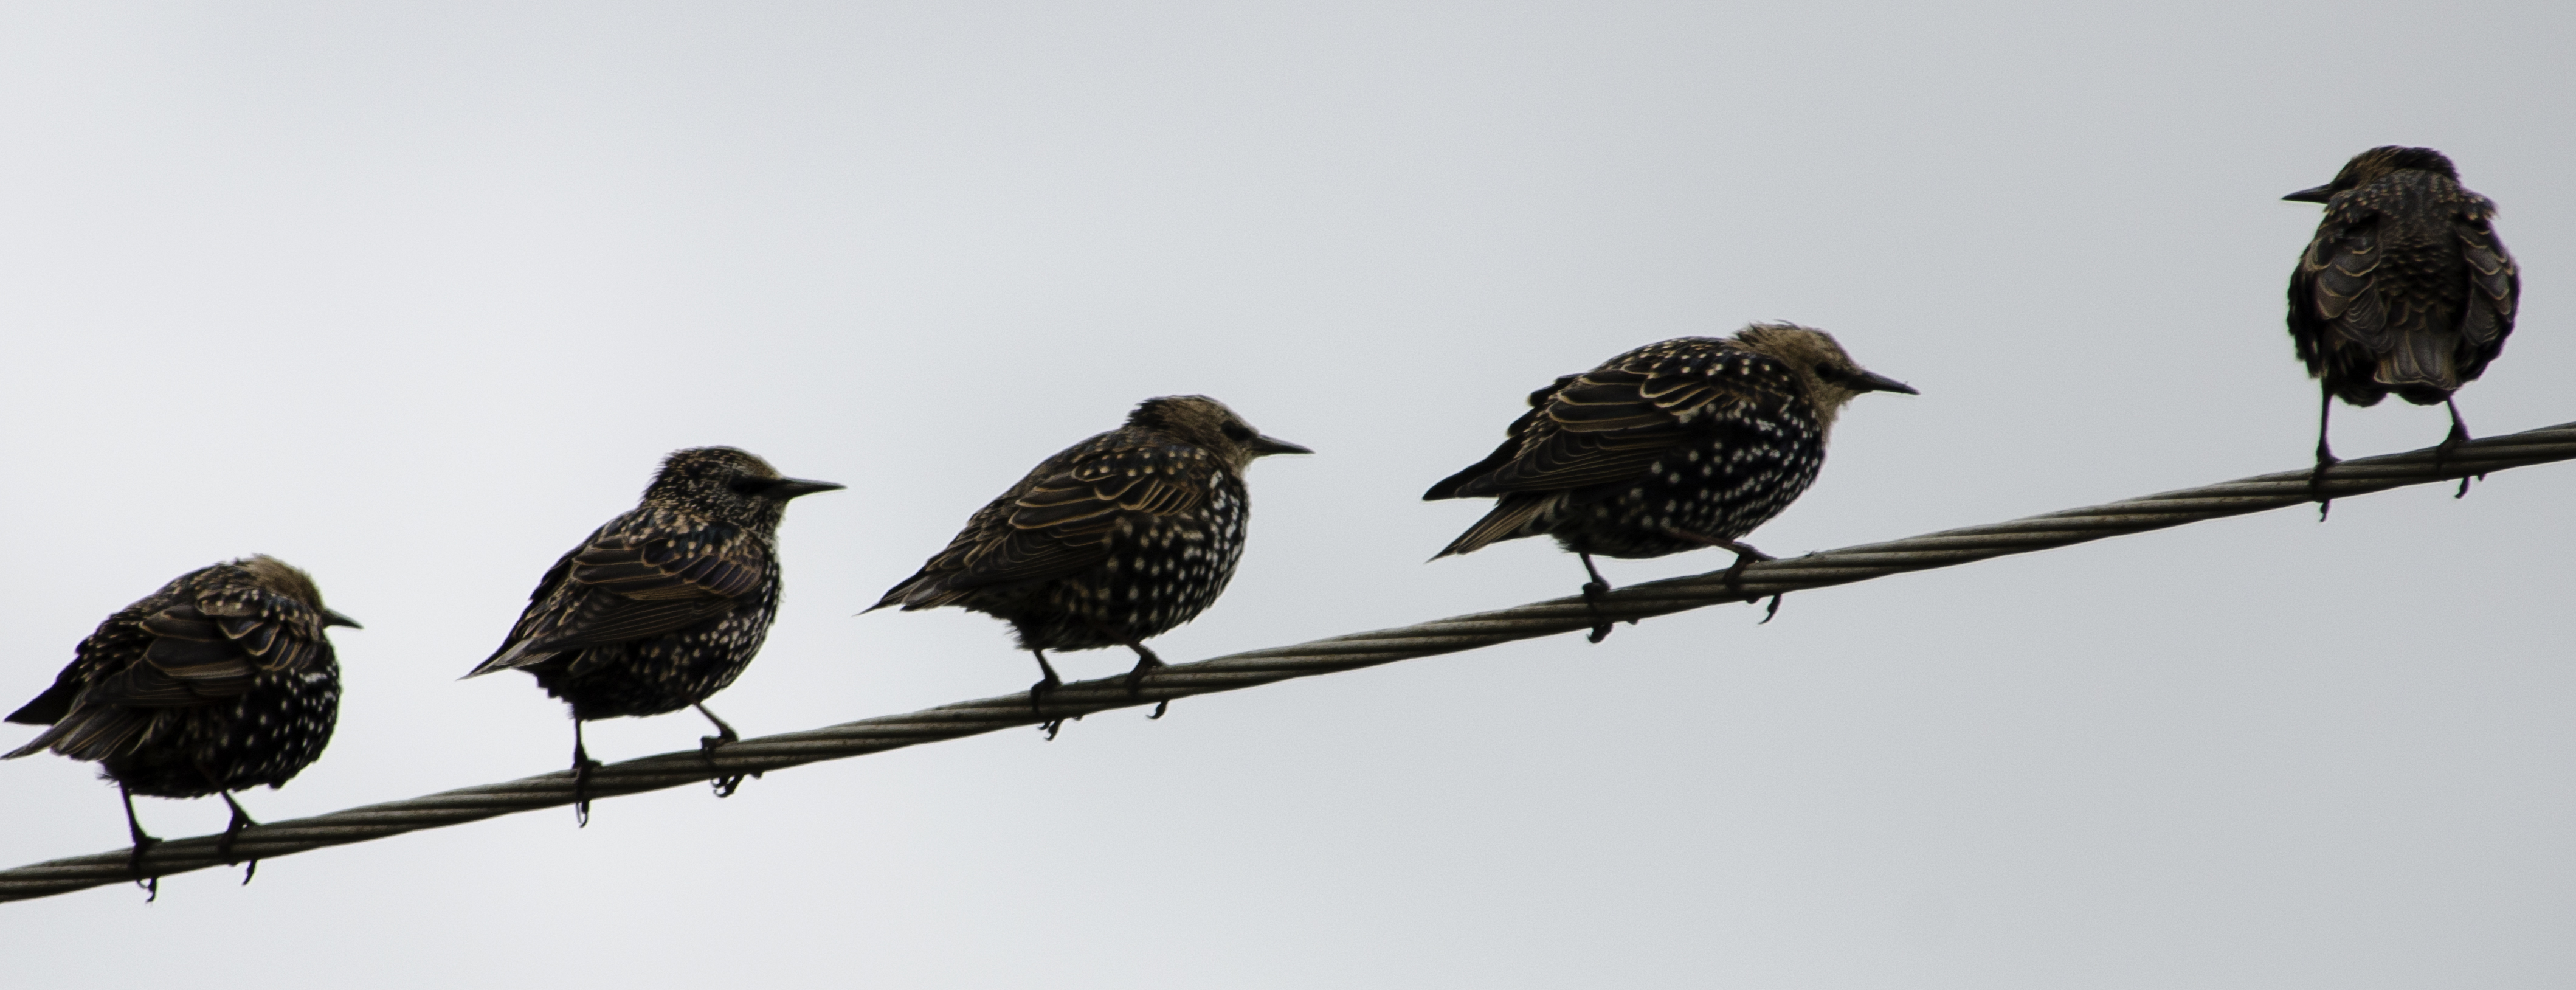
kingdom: Animalia
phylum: Chordata
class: Aves
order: Passeriformes
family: Sturnidae
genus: Sturnus
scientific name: Sturnus vulgaris
